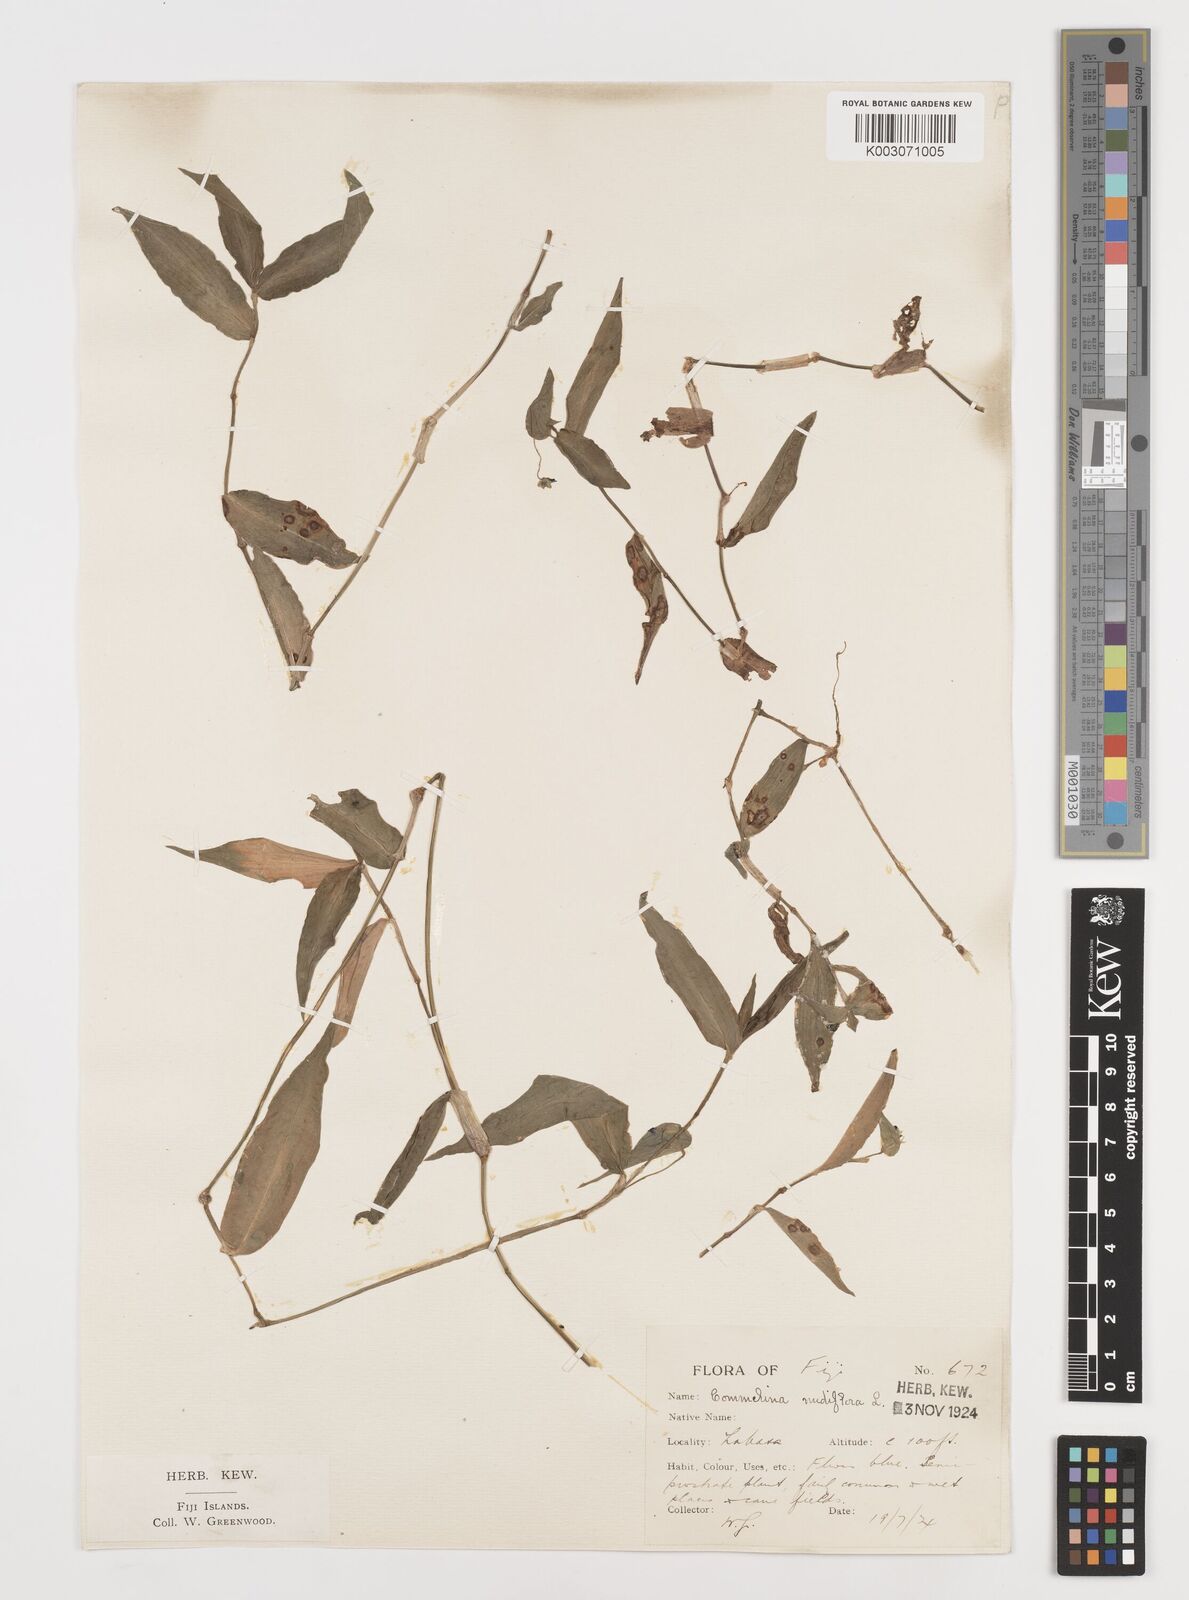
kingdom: Plantae
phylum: Tracheophyta
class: Liliopsida
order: Commelinales
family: Commelinaceae
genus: Commelina
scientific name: Commelina diffusa
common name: Climbing dayflower
